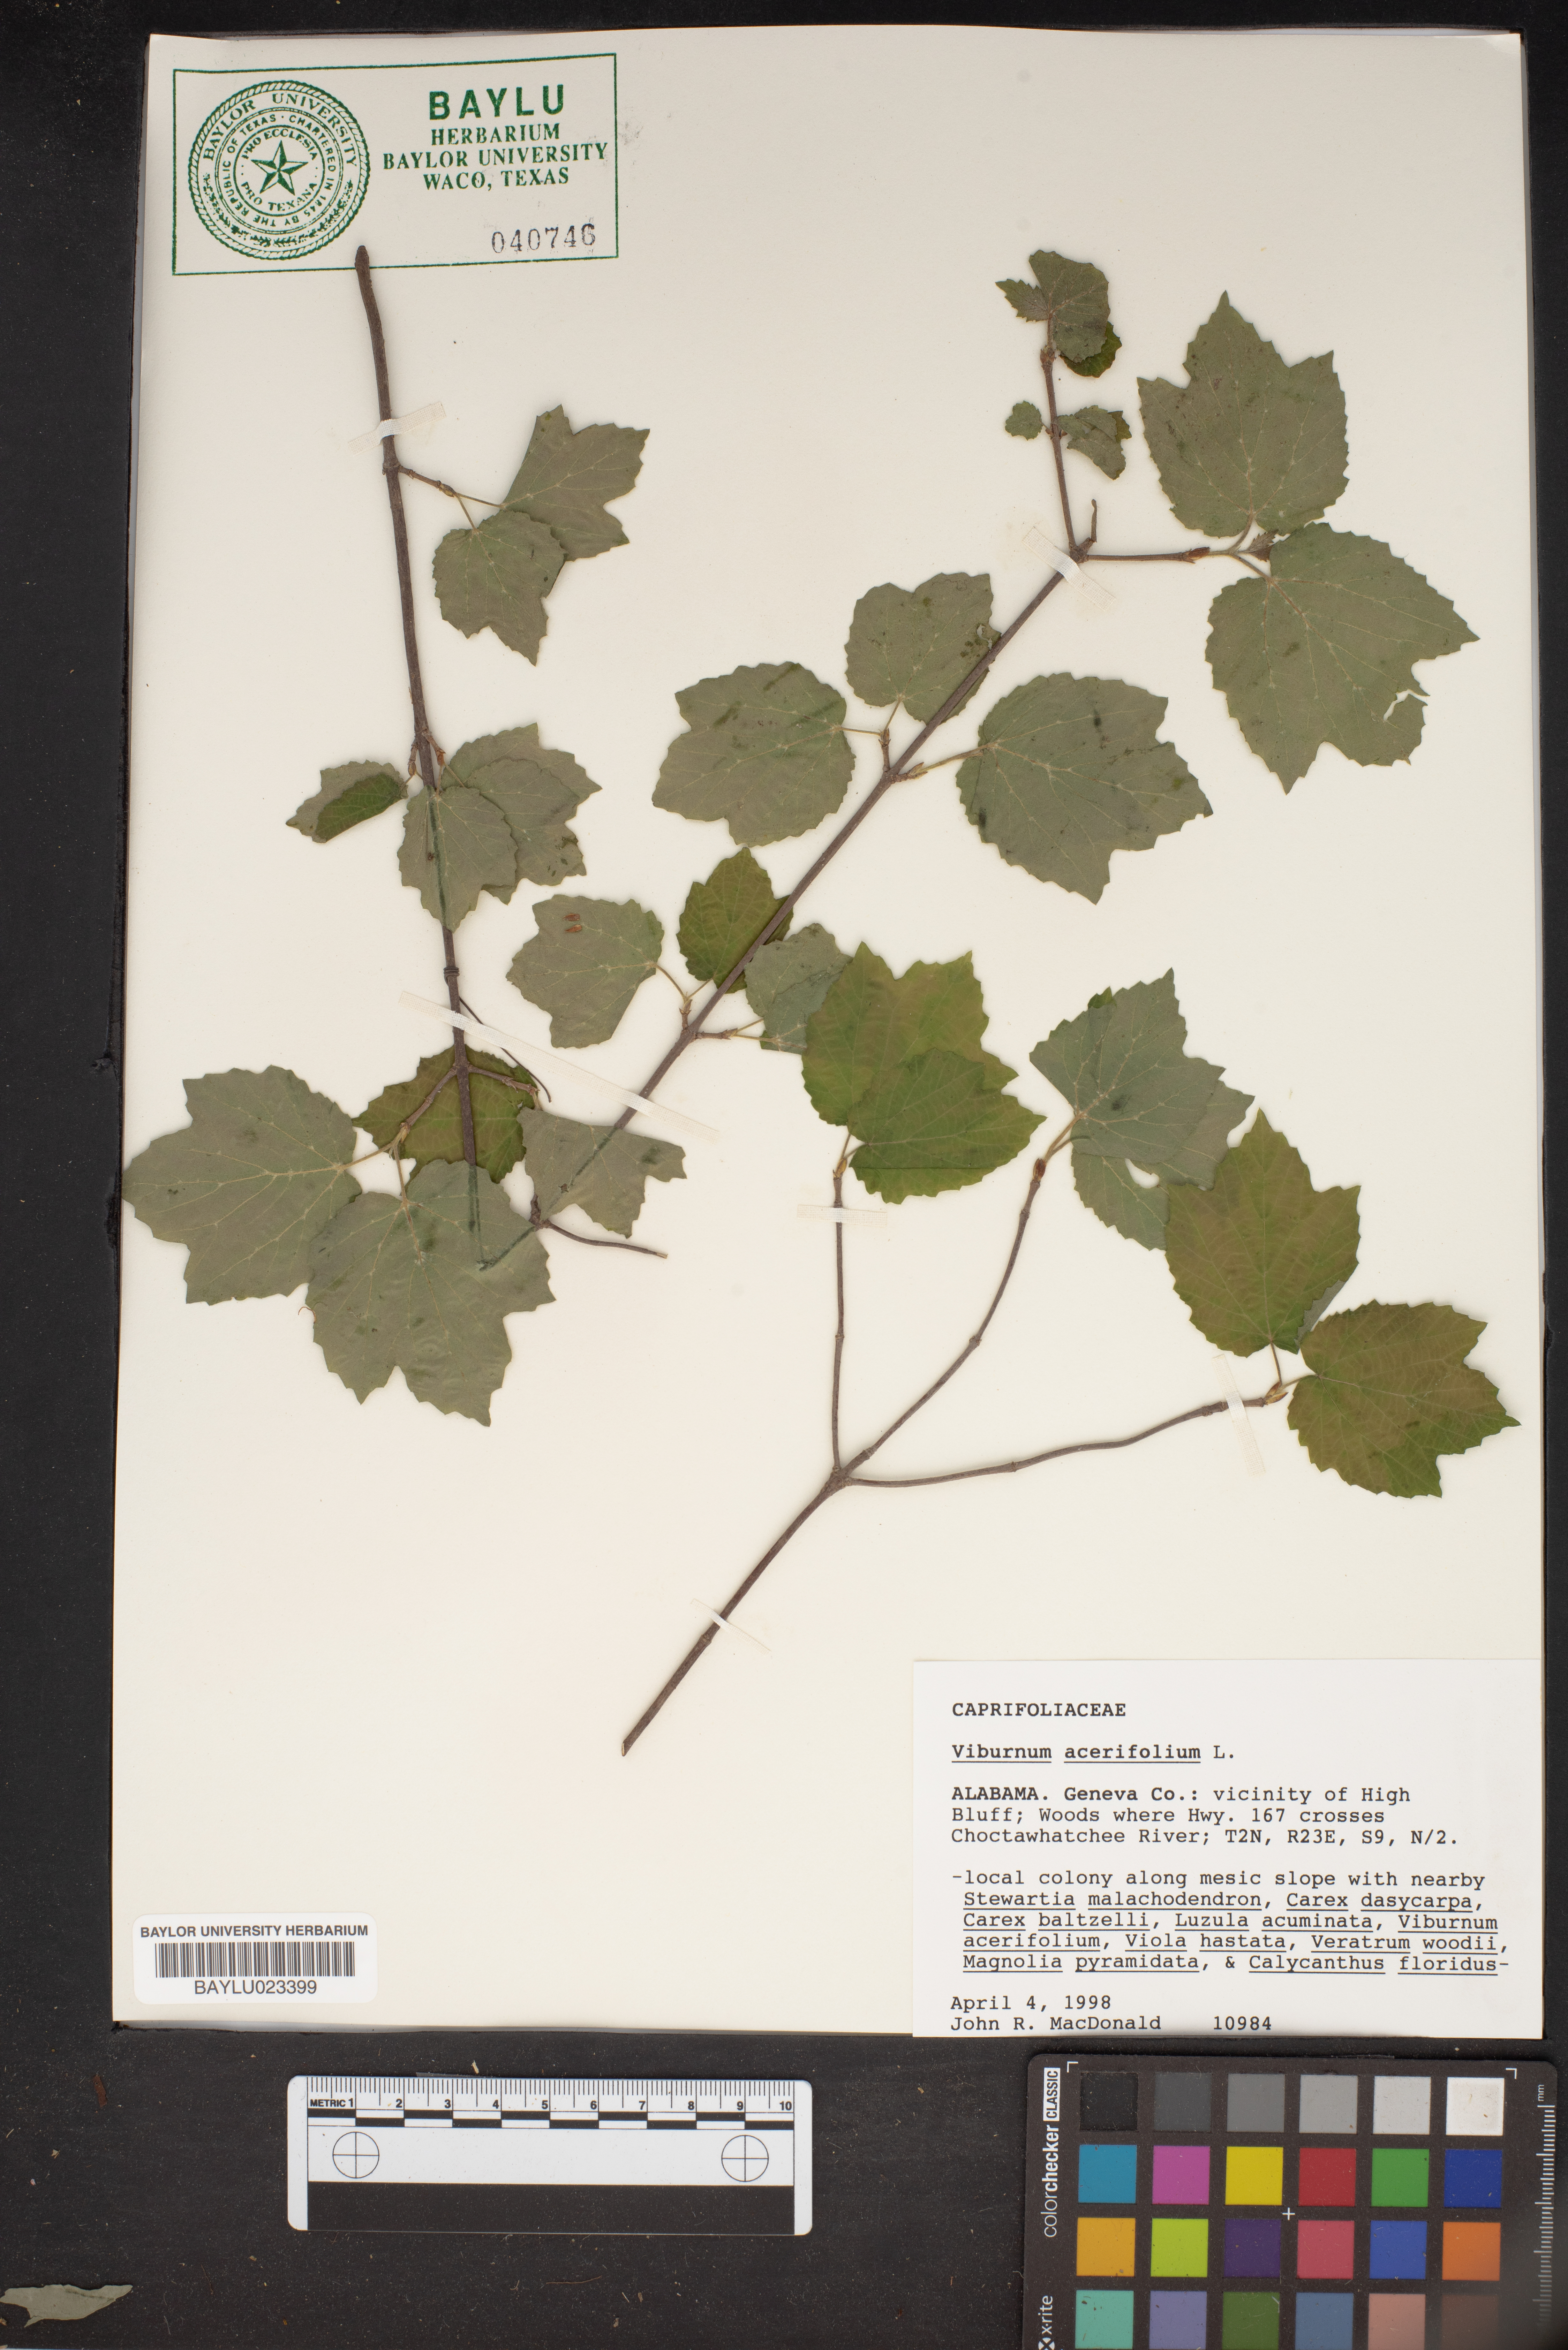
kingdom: Plantae
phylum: Tracheophyta
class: Magnoliopsida
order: Dipsacales
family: Viburnaceae
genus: Viburnum
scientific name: Viburnum acerifolium
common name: Dockmackie
